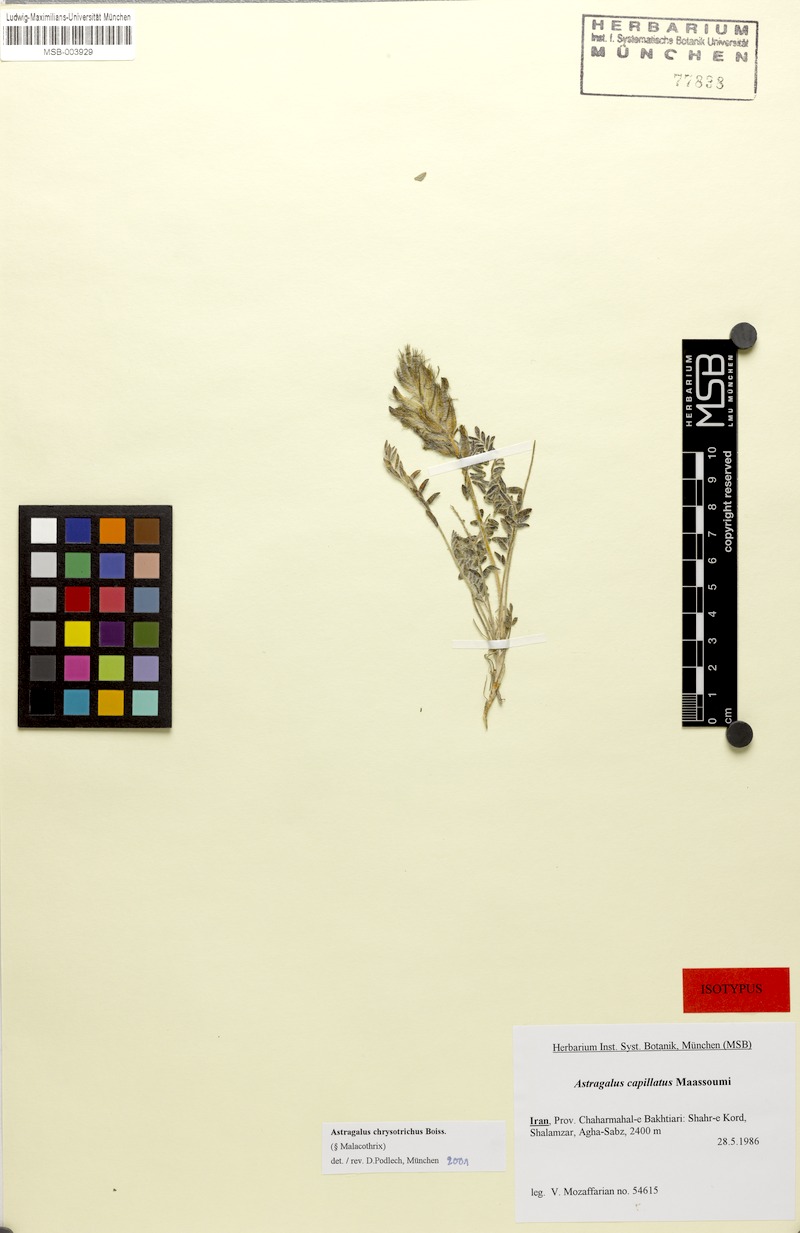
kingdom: Plantae
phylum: Tracheophyta
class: Magnoliopsida
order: Fabales
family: Fabaceae
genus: Astragalus
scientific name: Astragalus chrysotrichus
